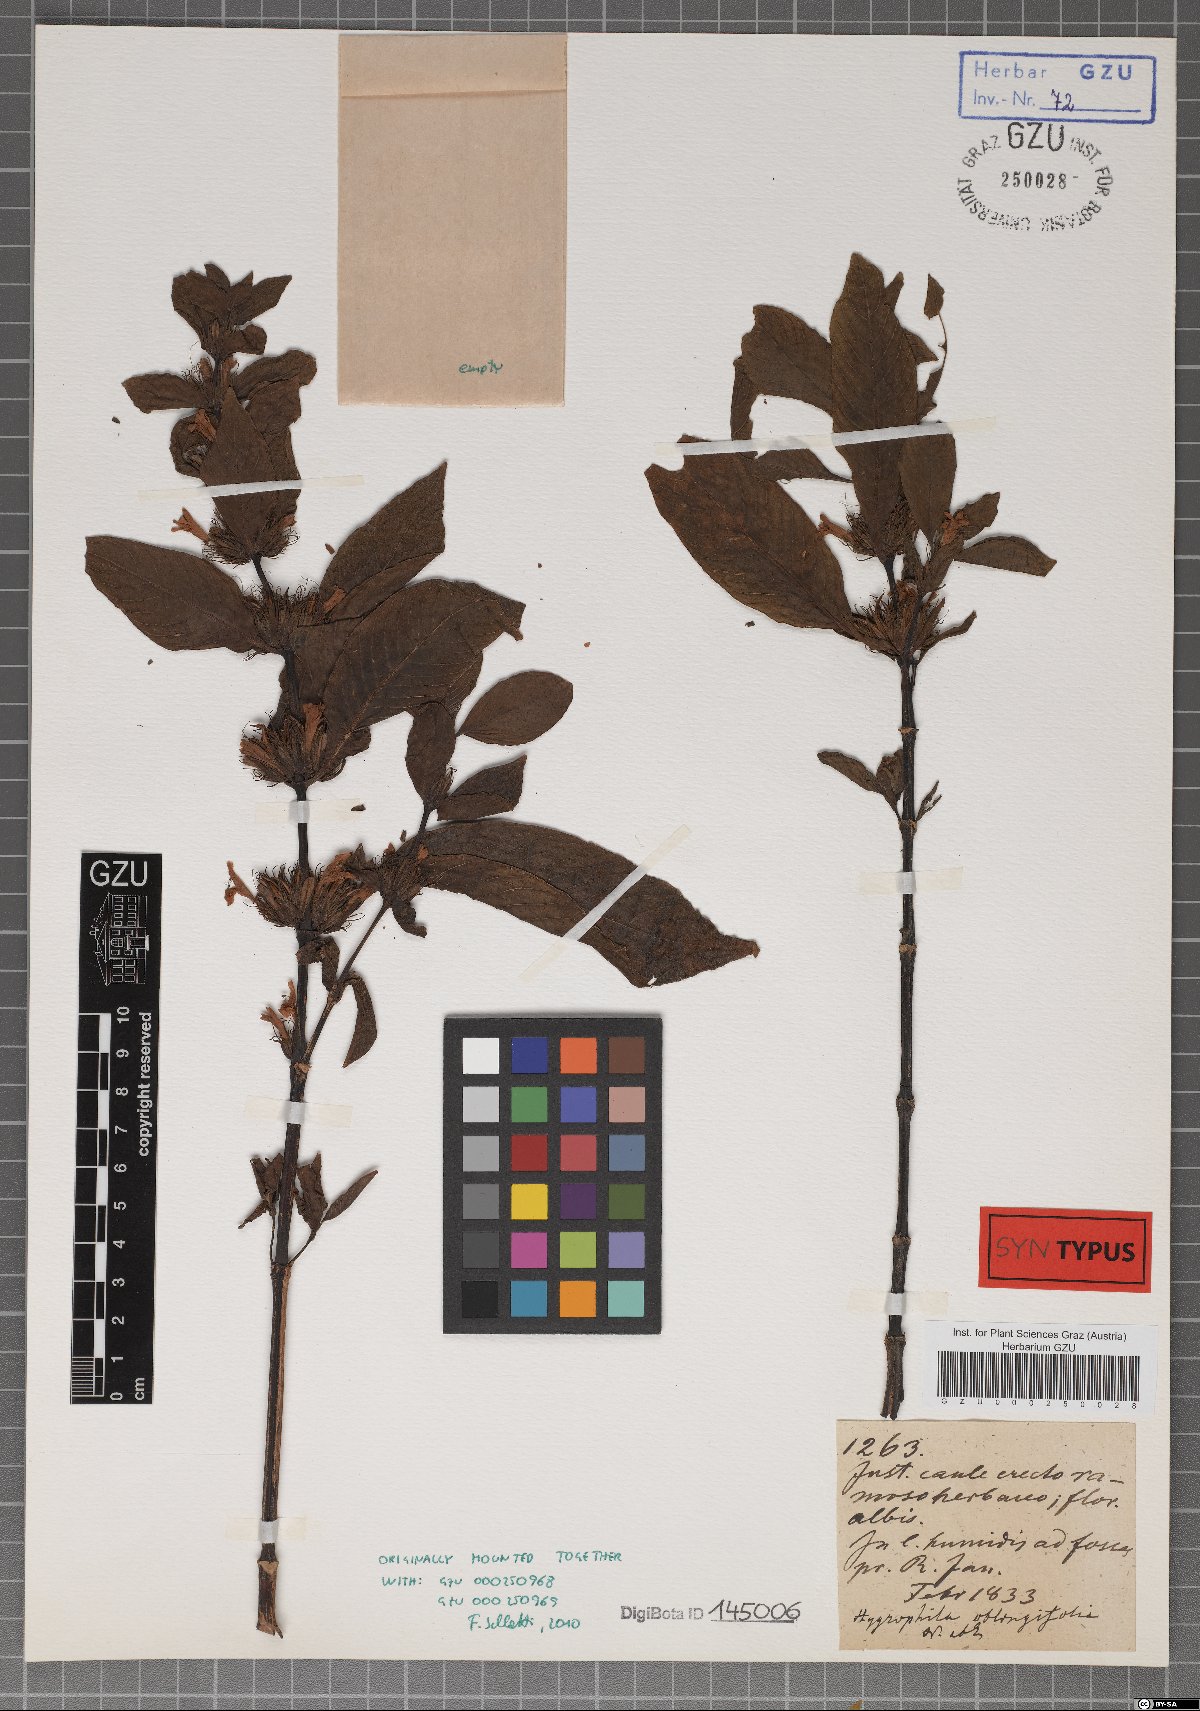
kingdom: Plantae
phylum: Tracheophyta
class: Magnoliopsida
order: Lamiales
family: Acanthaceae
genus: Hygrophila
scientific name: Hygrophila acutangula
